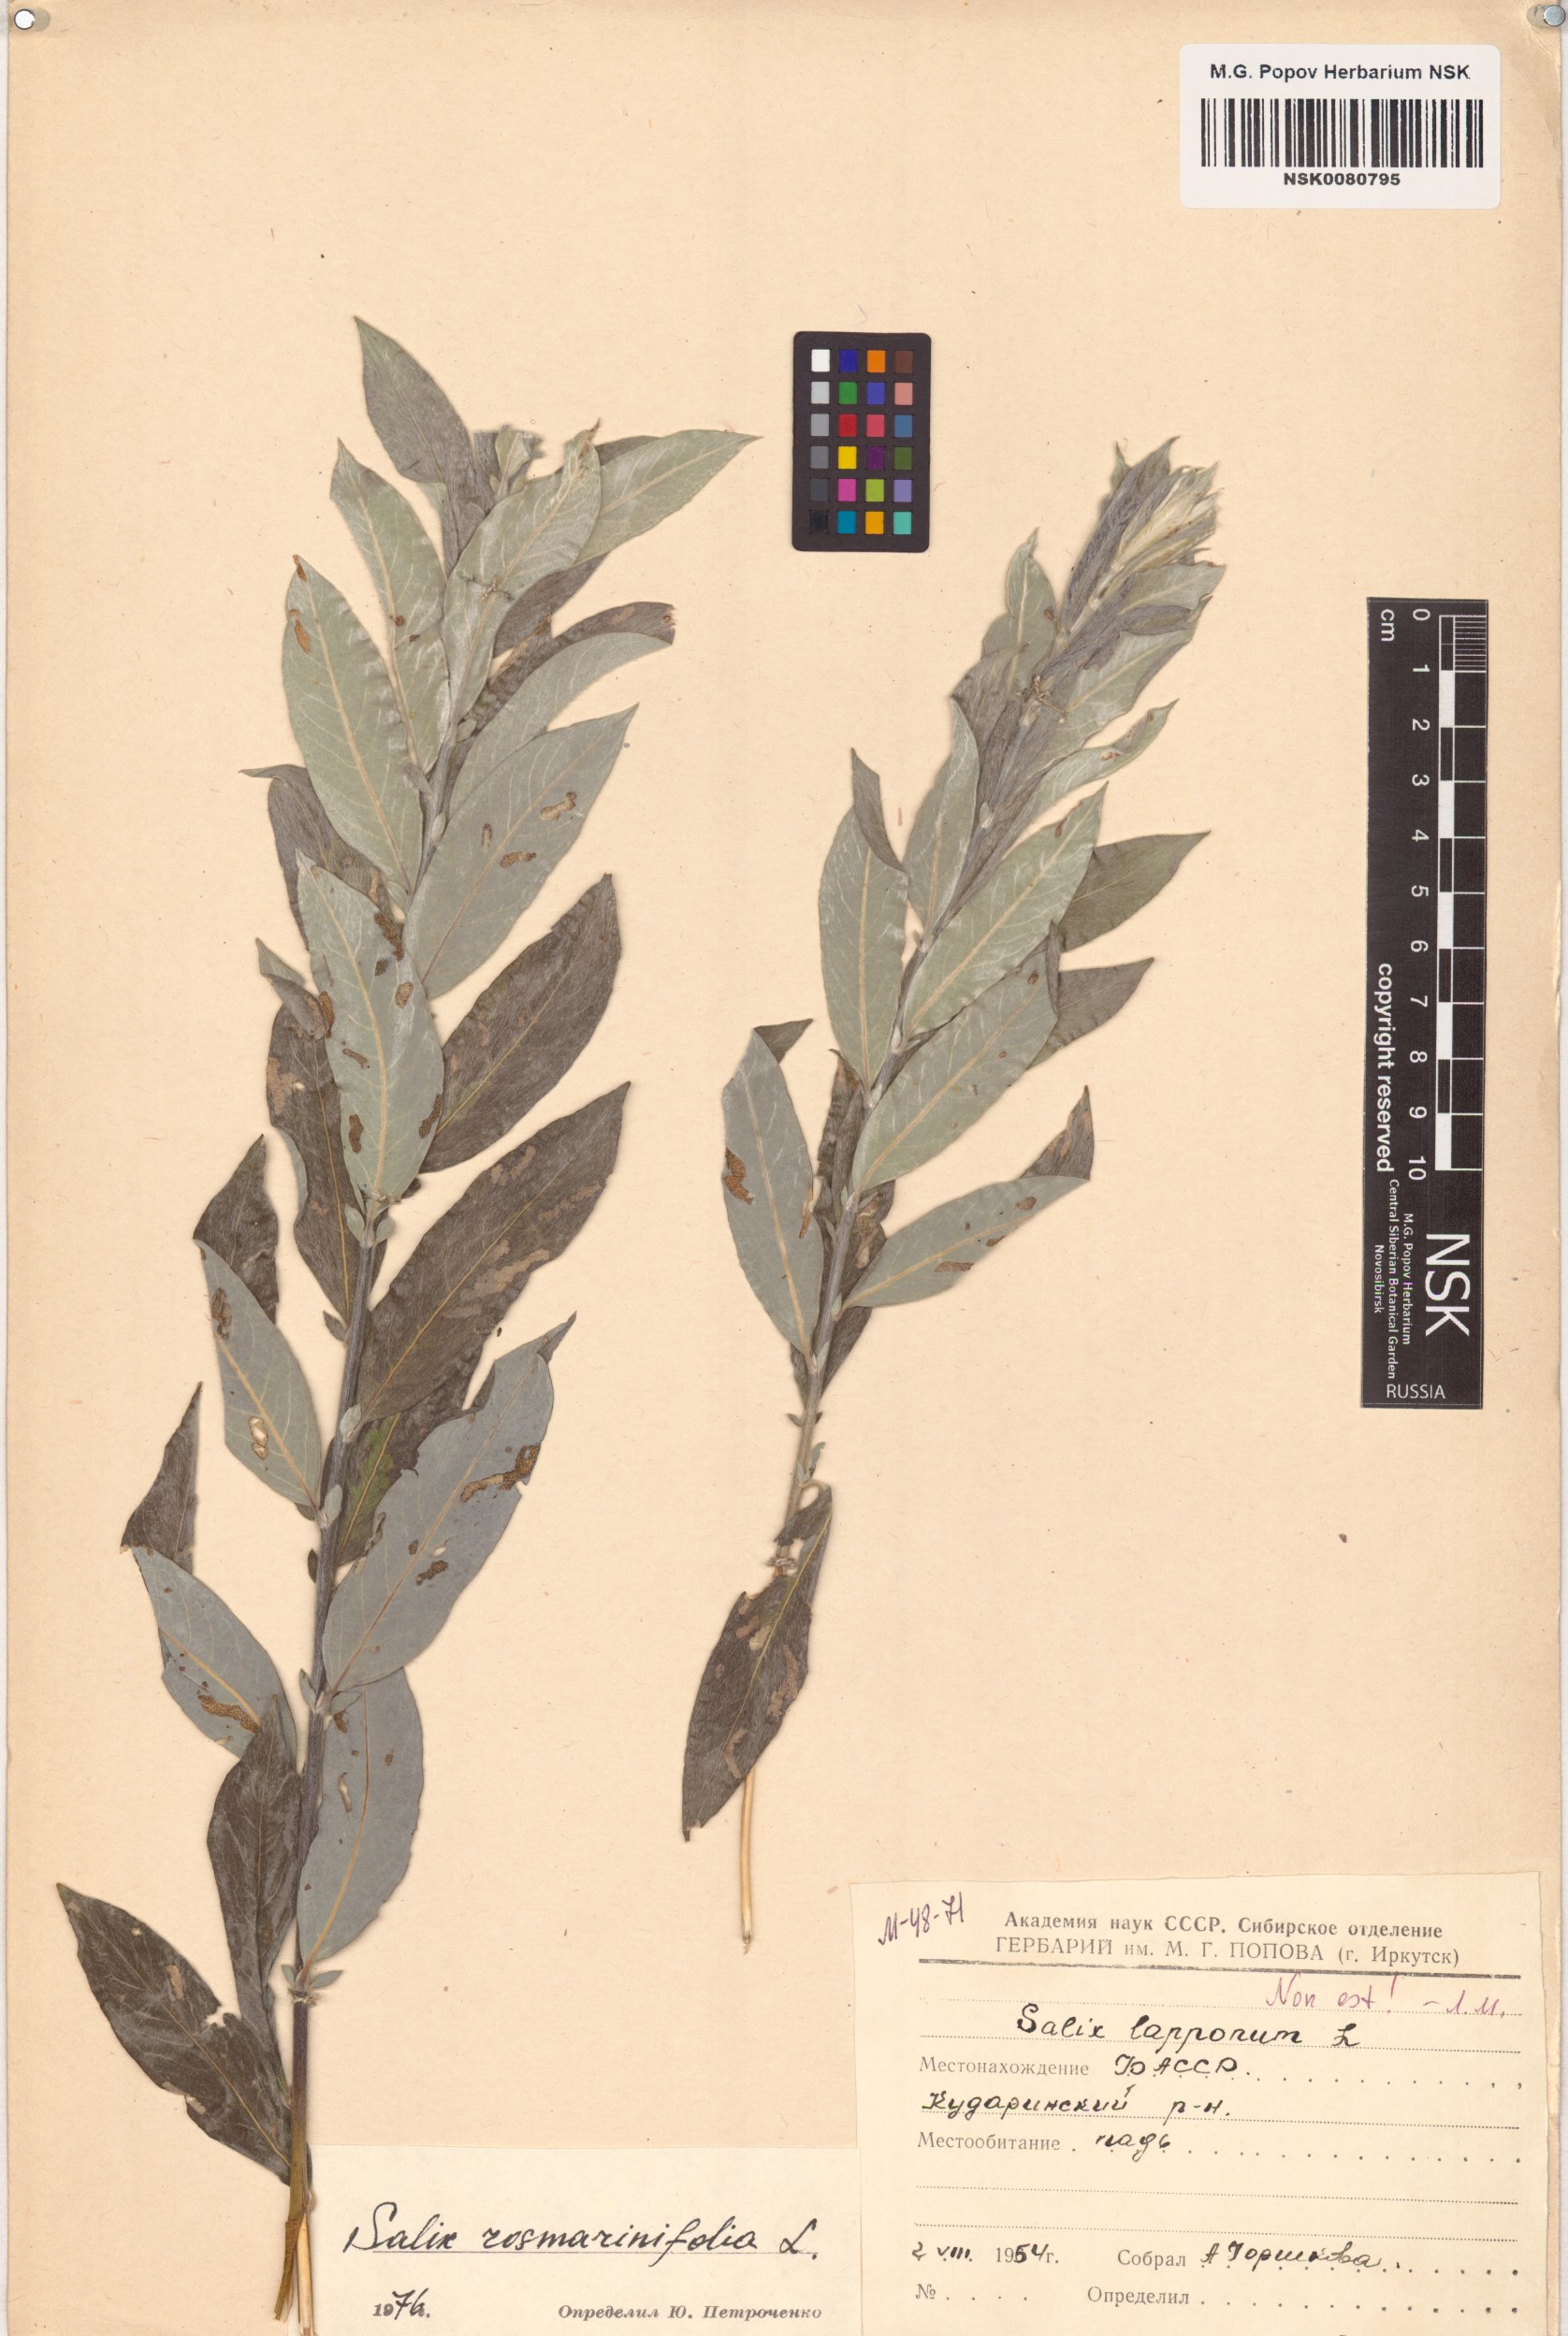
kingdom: Plantae
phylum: Tracheophyta
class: Magnoliopsida
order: Malpighiales
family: Salicaceae
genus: Salix
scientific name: Salix rosmarinifolia
